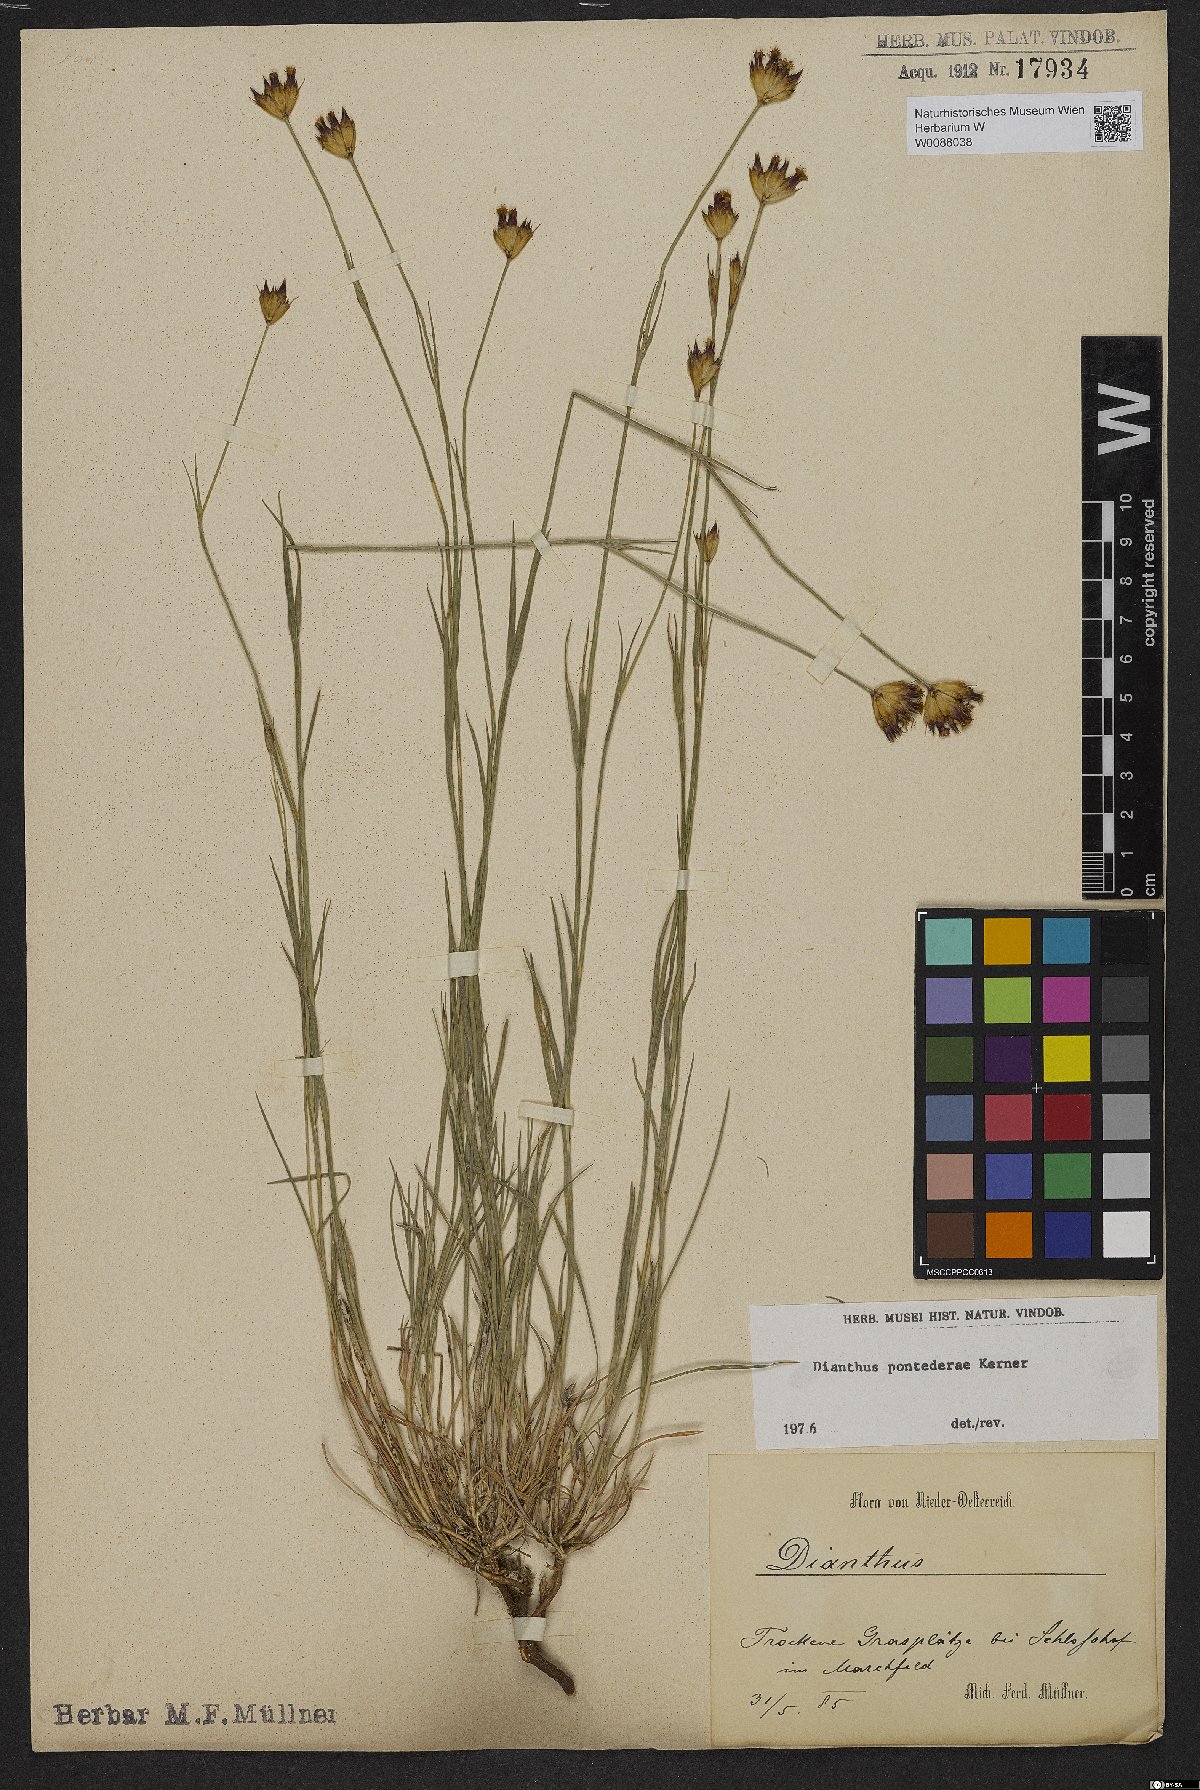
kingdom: Plantae
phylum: Tracheophyta
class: Magnoliopsida
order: Caryophyllales
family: Caryophyllaceae
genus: Dianthus
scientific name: Dianthus pontederae
